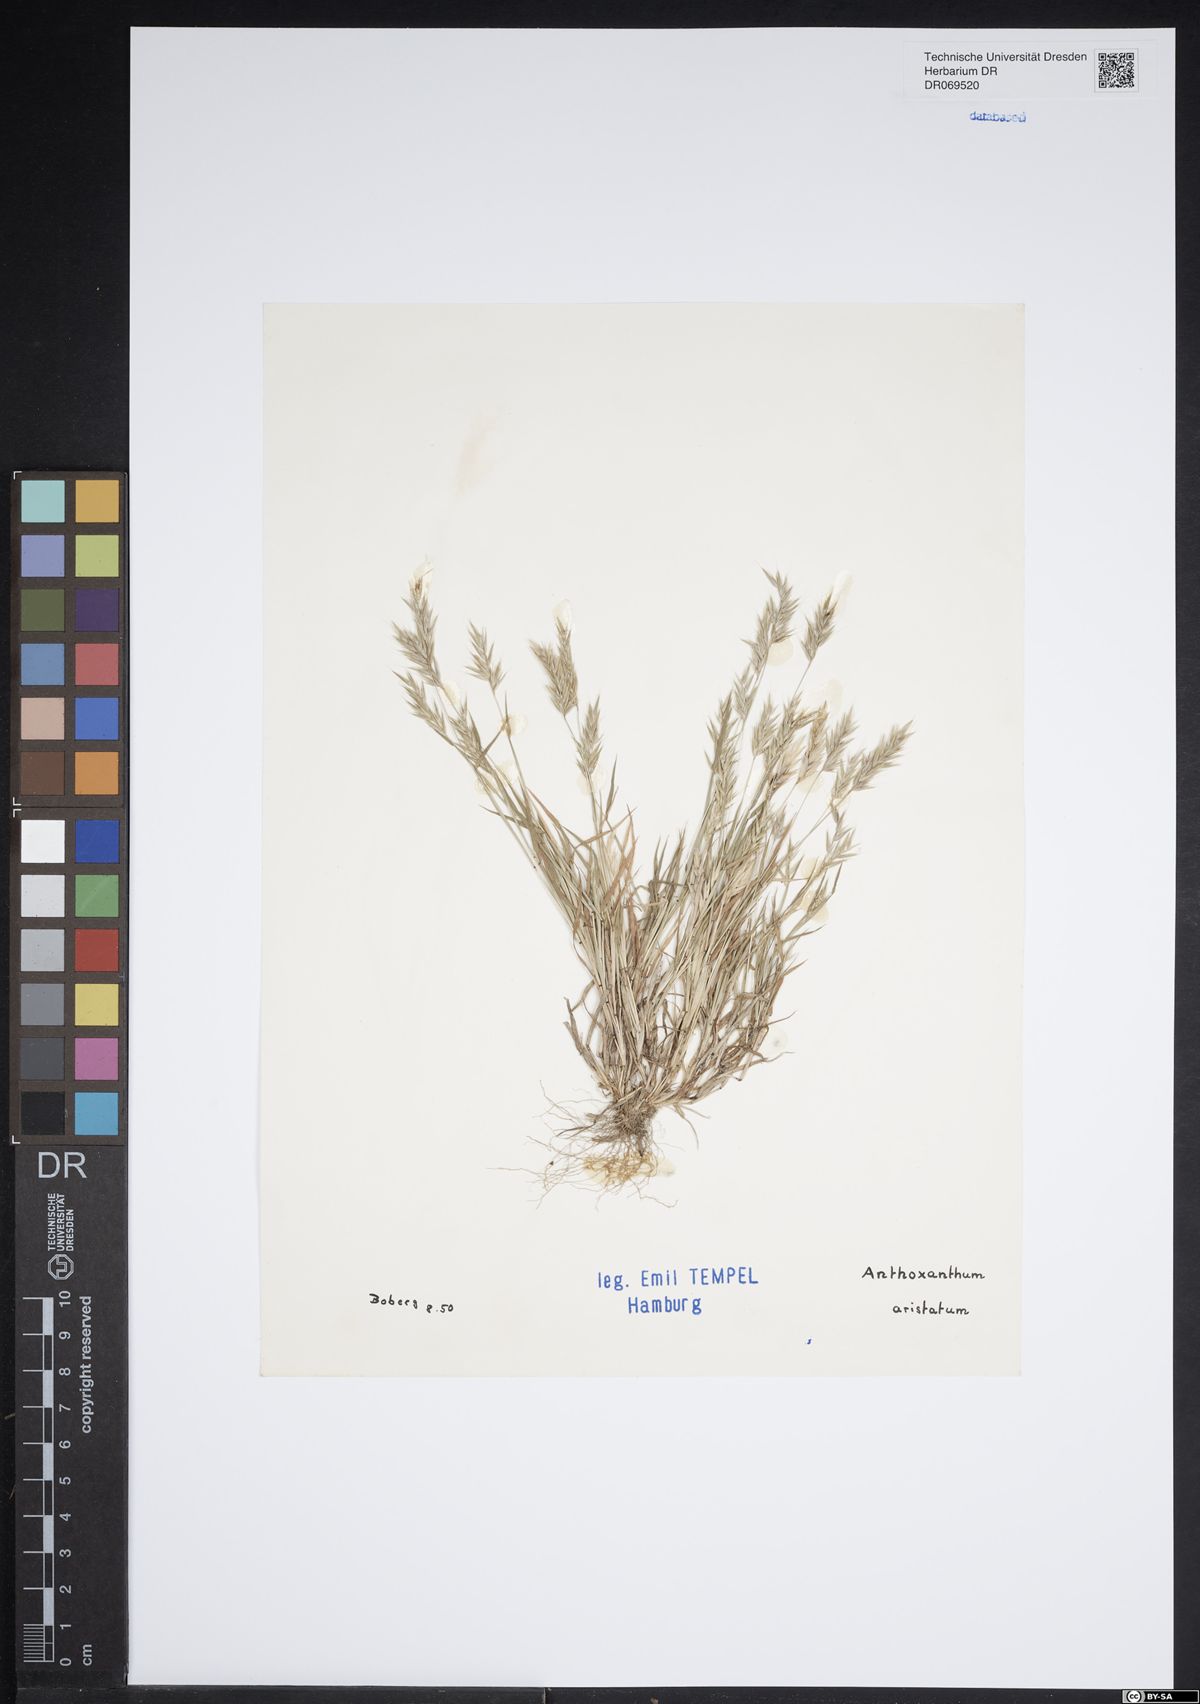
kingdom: Plantae
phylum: Tracheophyta
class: Liliopsida
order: Poales
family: Poaceae
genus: Anthoxanthum
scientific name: Anthoxanthum aristatum
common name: Annual vernal-grass
